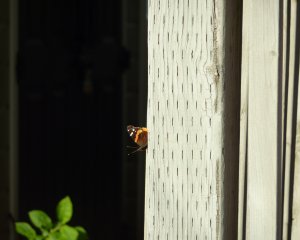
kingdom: Animalia
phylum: Arthropoda
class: Insecta
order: Lepidoptera
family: Nymphalidae
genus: Vanessa
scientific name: Vanessa atalanta
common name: Red Admiral
